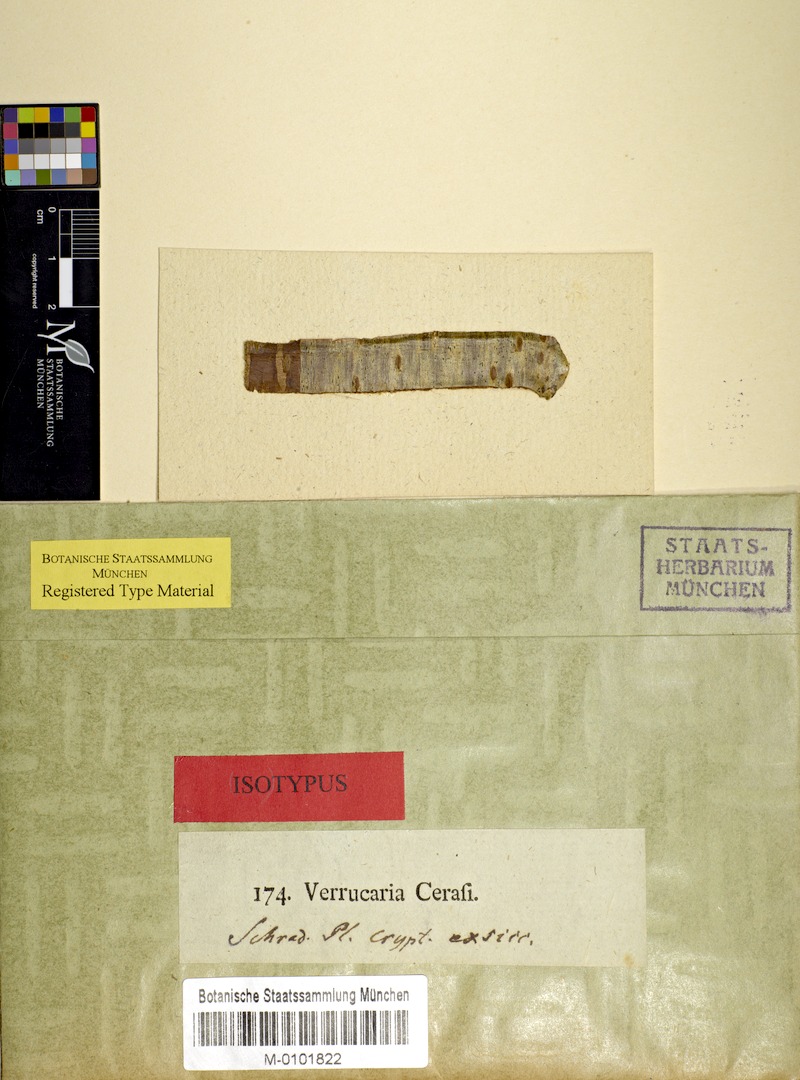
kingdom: Fungi
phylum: Ascomycota
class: Dothideomycetes
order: Trypetheliales
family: Trypetheliaceae
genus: Arthopyrenia
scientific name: Arthopyrenia cerasi
